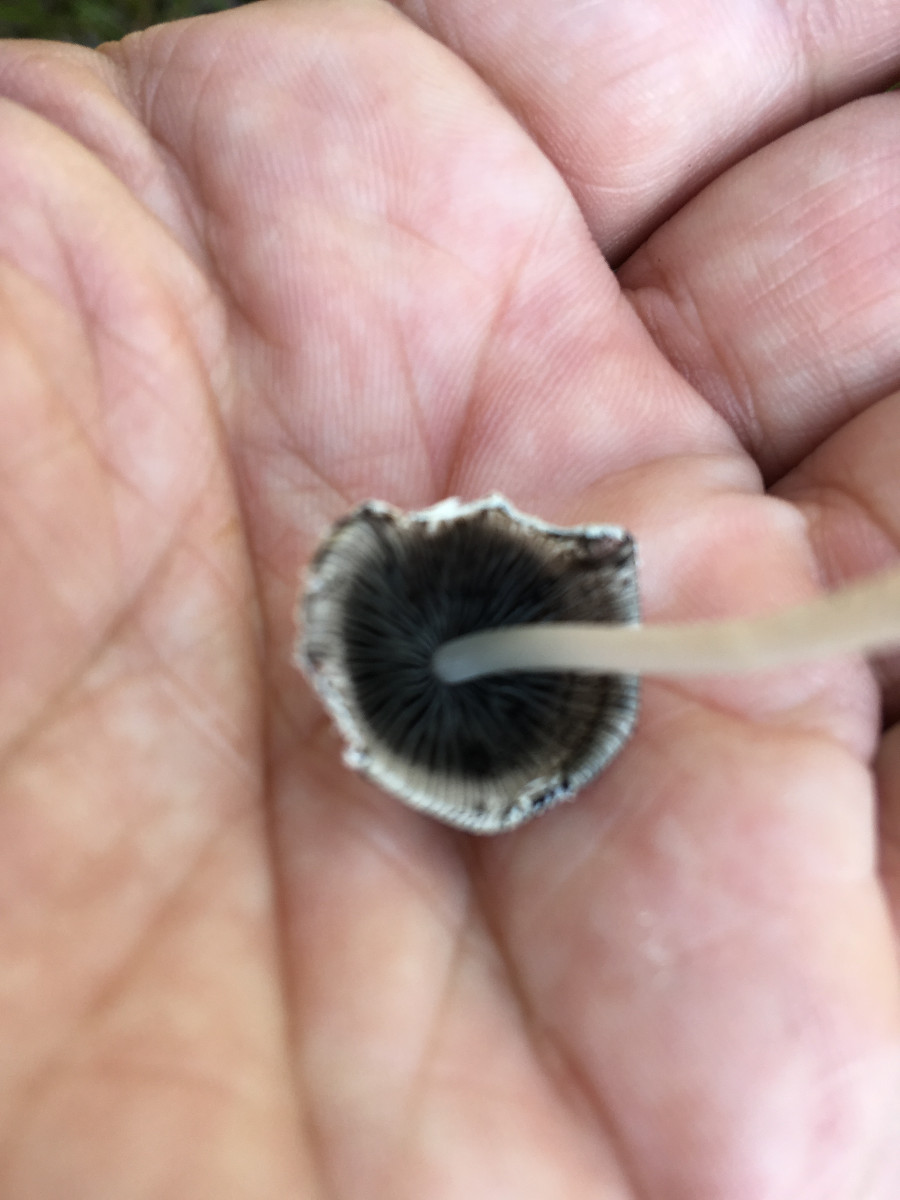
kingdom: Fungi
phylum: Basidiomycota
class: Agaricomycetes
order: Agaricales
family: Psathyrellaceae
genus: Coprinopsis
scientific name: Coprinopsis nivea
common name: snehvid blækhat
